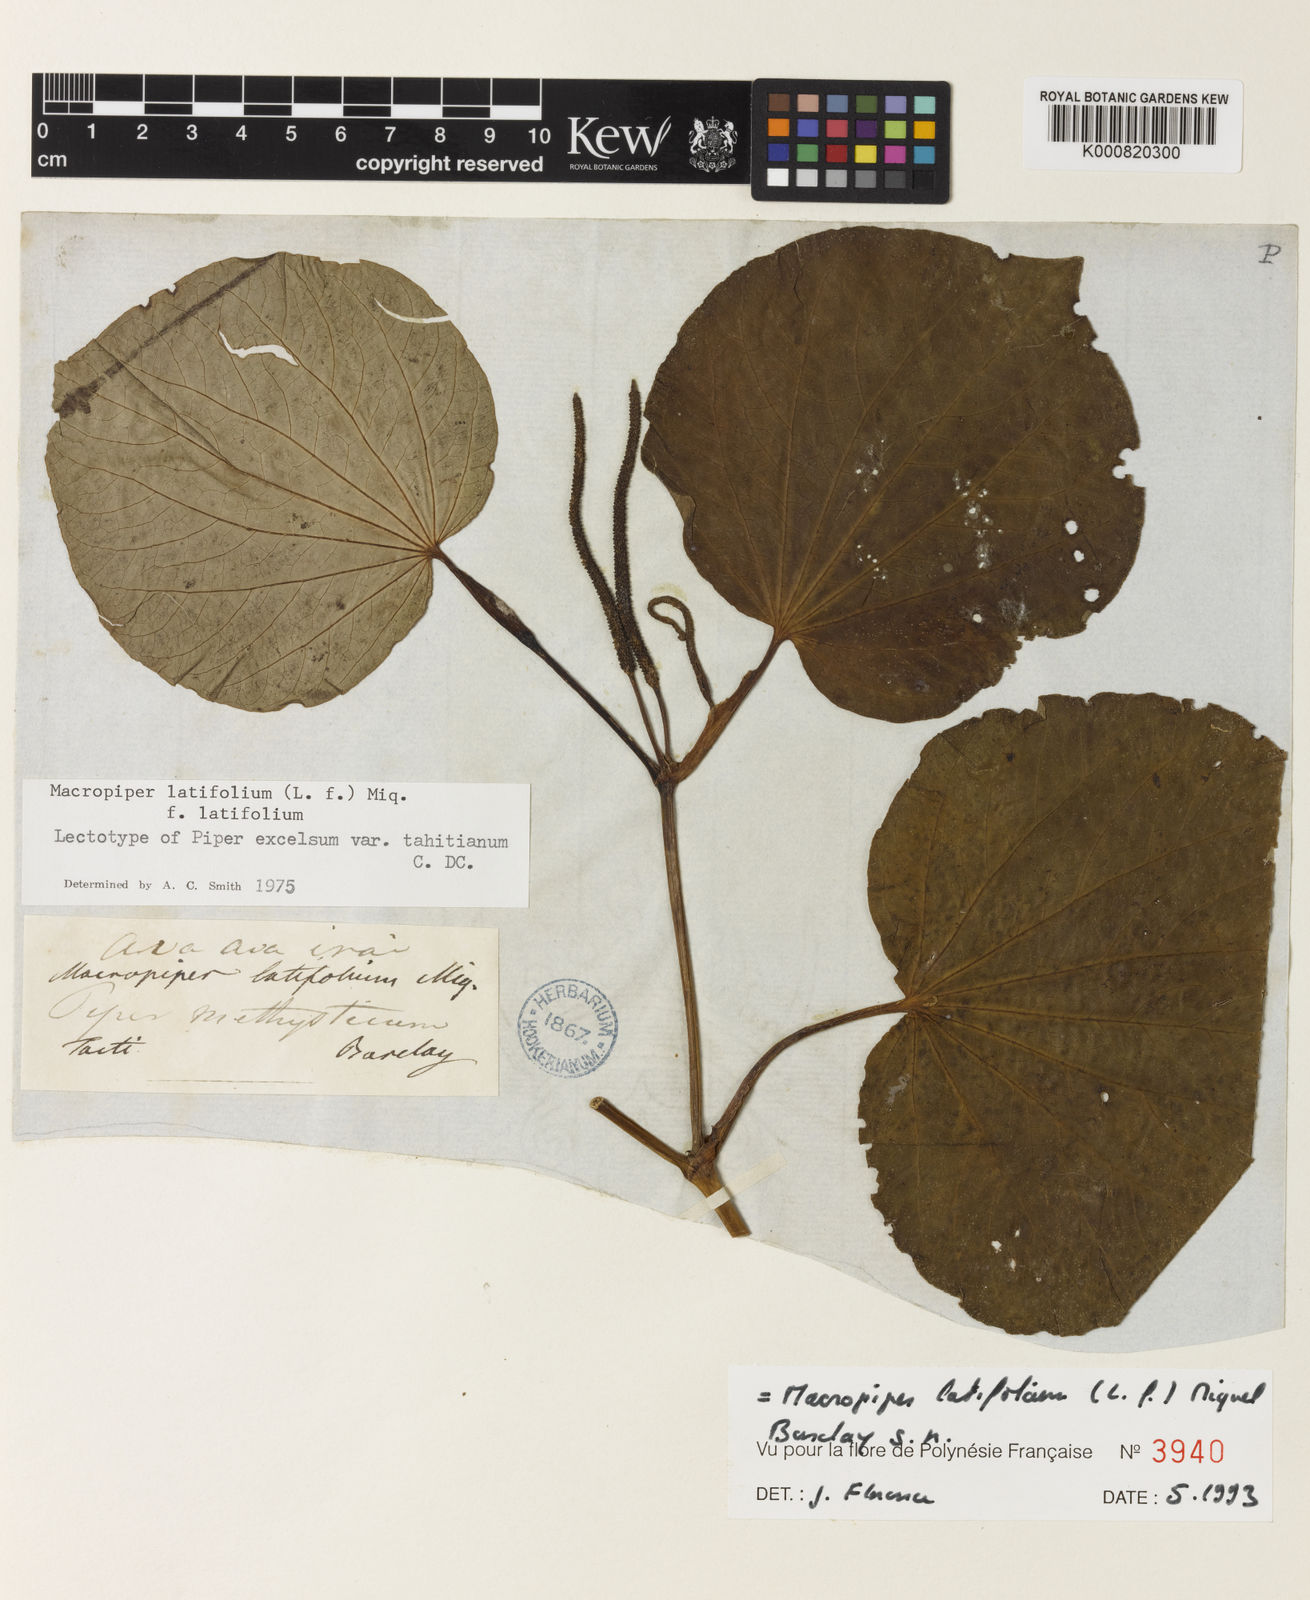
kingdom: Plantae
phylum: Tracheophyta
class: Magnoliopsida
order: Piperales
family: Piperaceae
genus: Macropiper
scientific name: Macropiper latifolium
